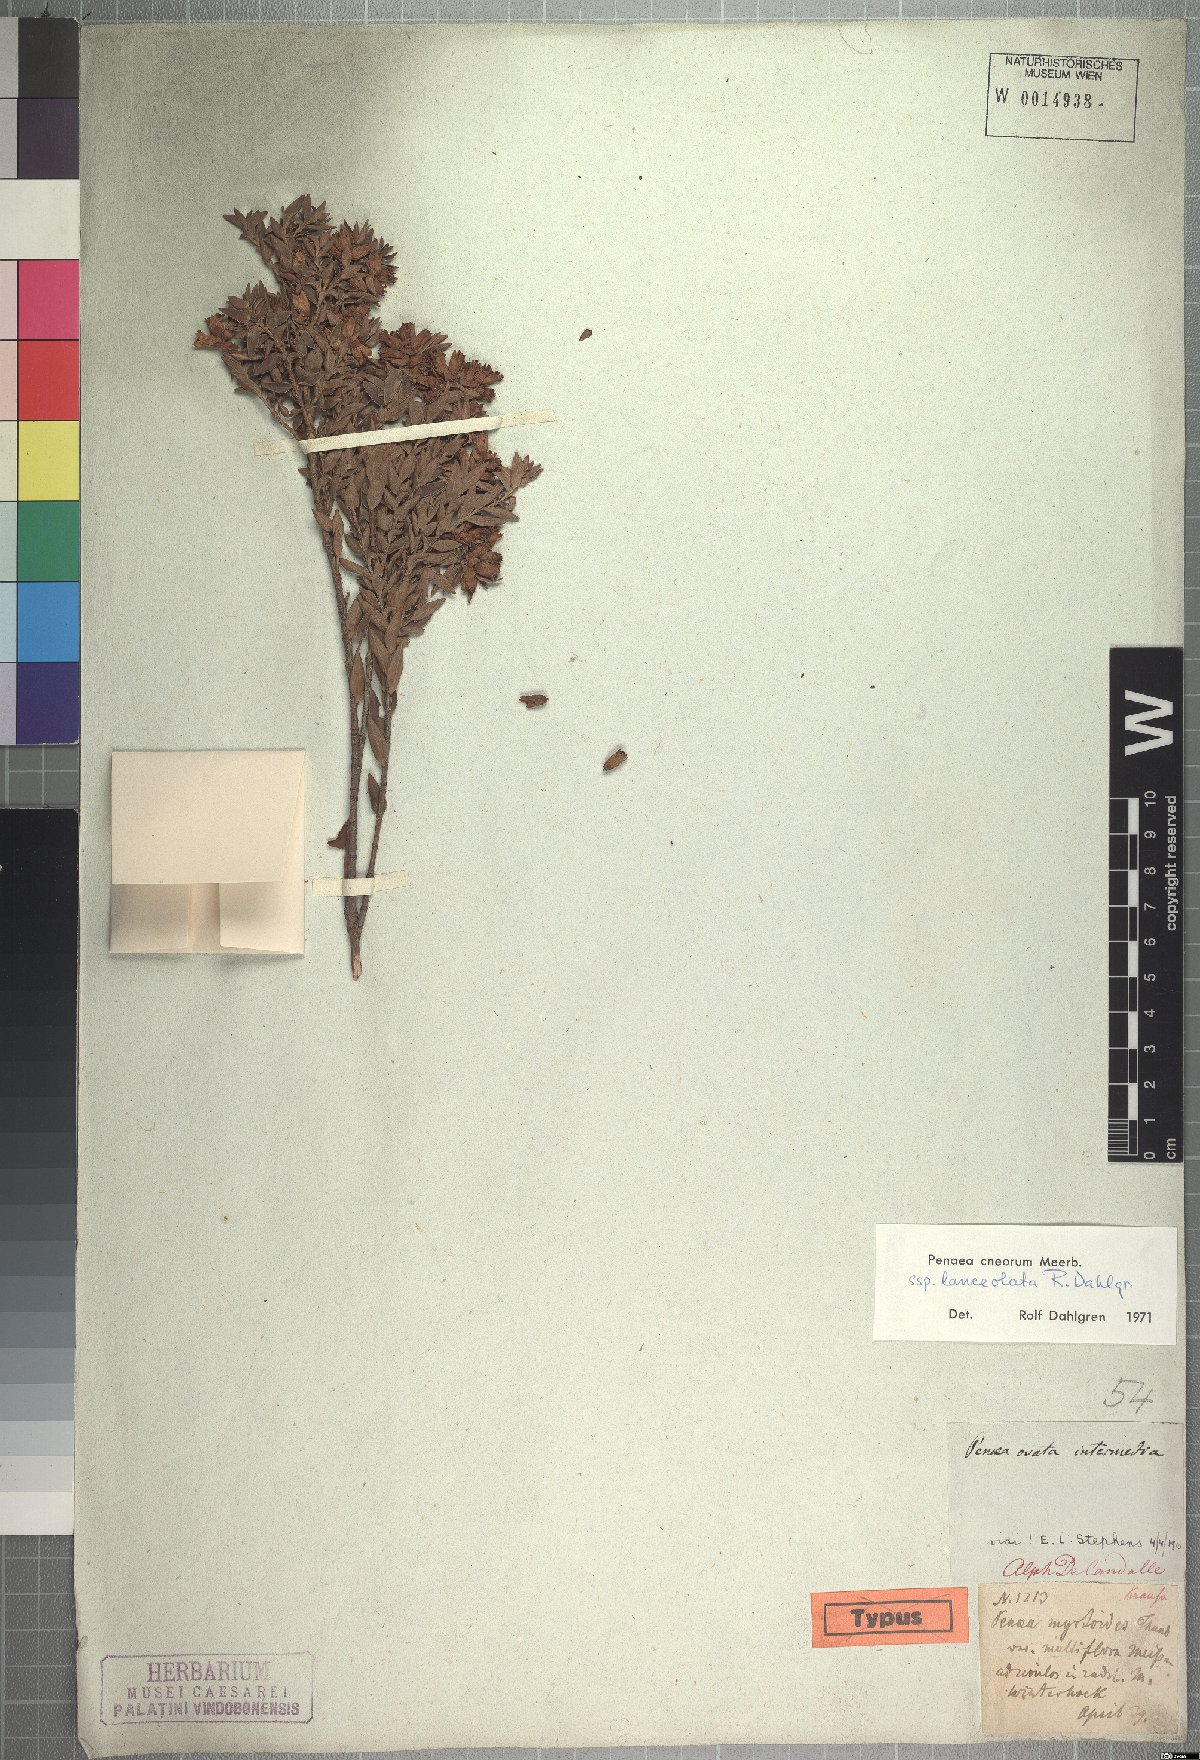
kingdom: Plantae
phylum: Tracheophyta
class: Magnoliopsida
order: Myrtales
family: Penaeaceae
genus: Penaea
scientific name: Penaea cneorum
